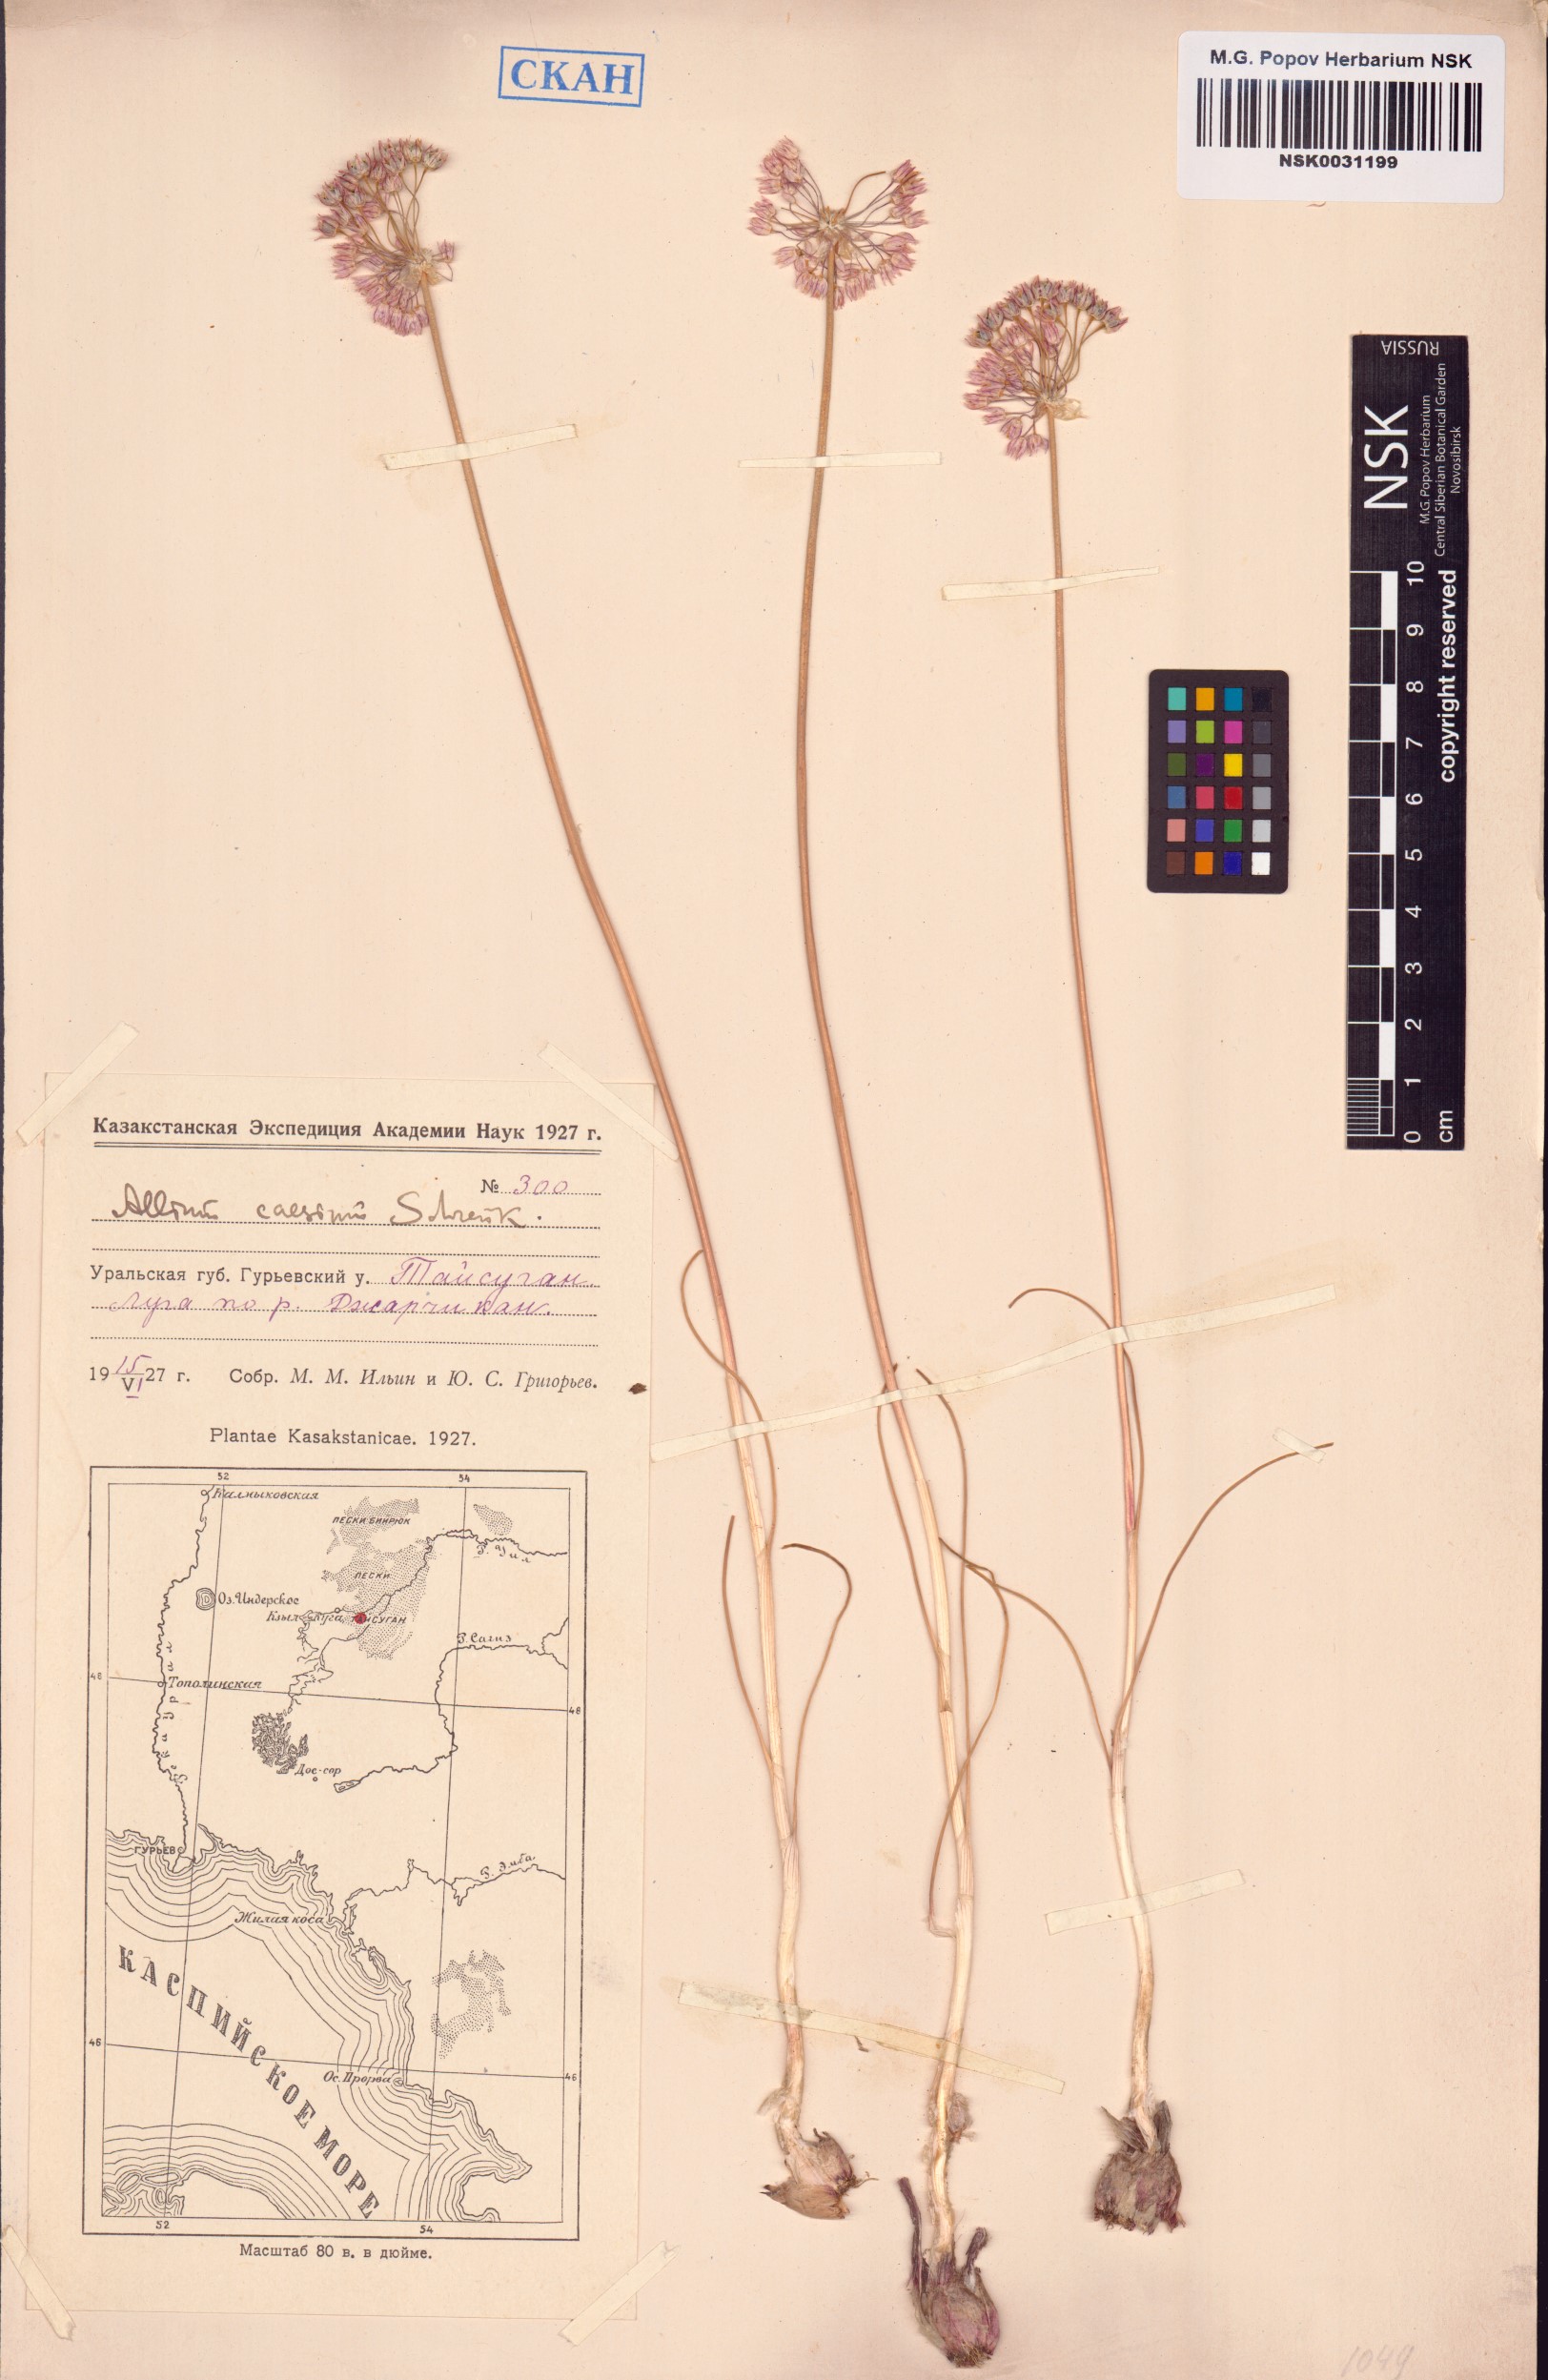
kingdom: Plantae
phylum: Tracheophyta
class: Liliopsida
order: Asparagales
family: Amaryllidaceae
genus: Allium
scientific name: Allium caesium
